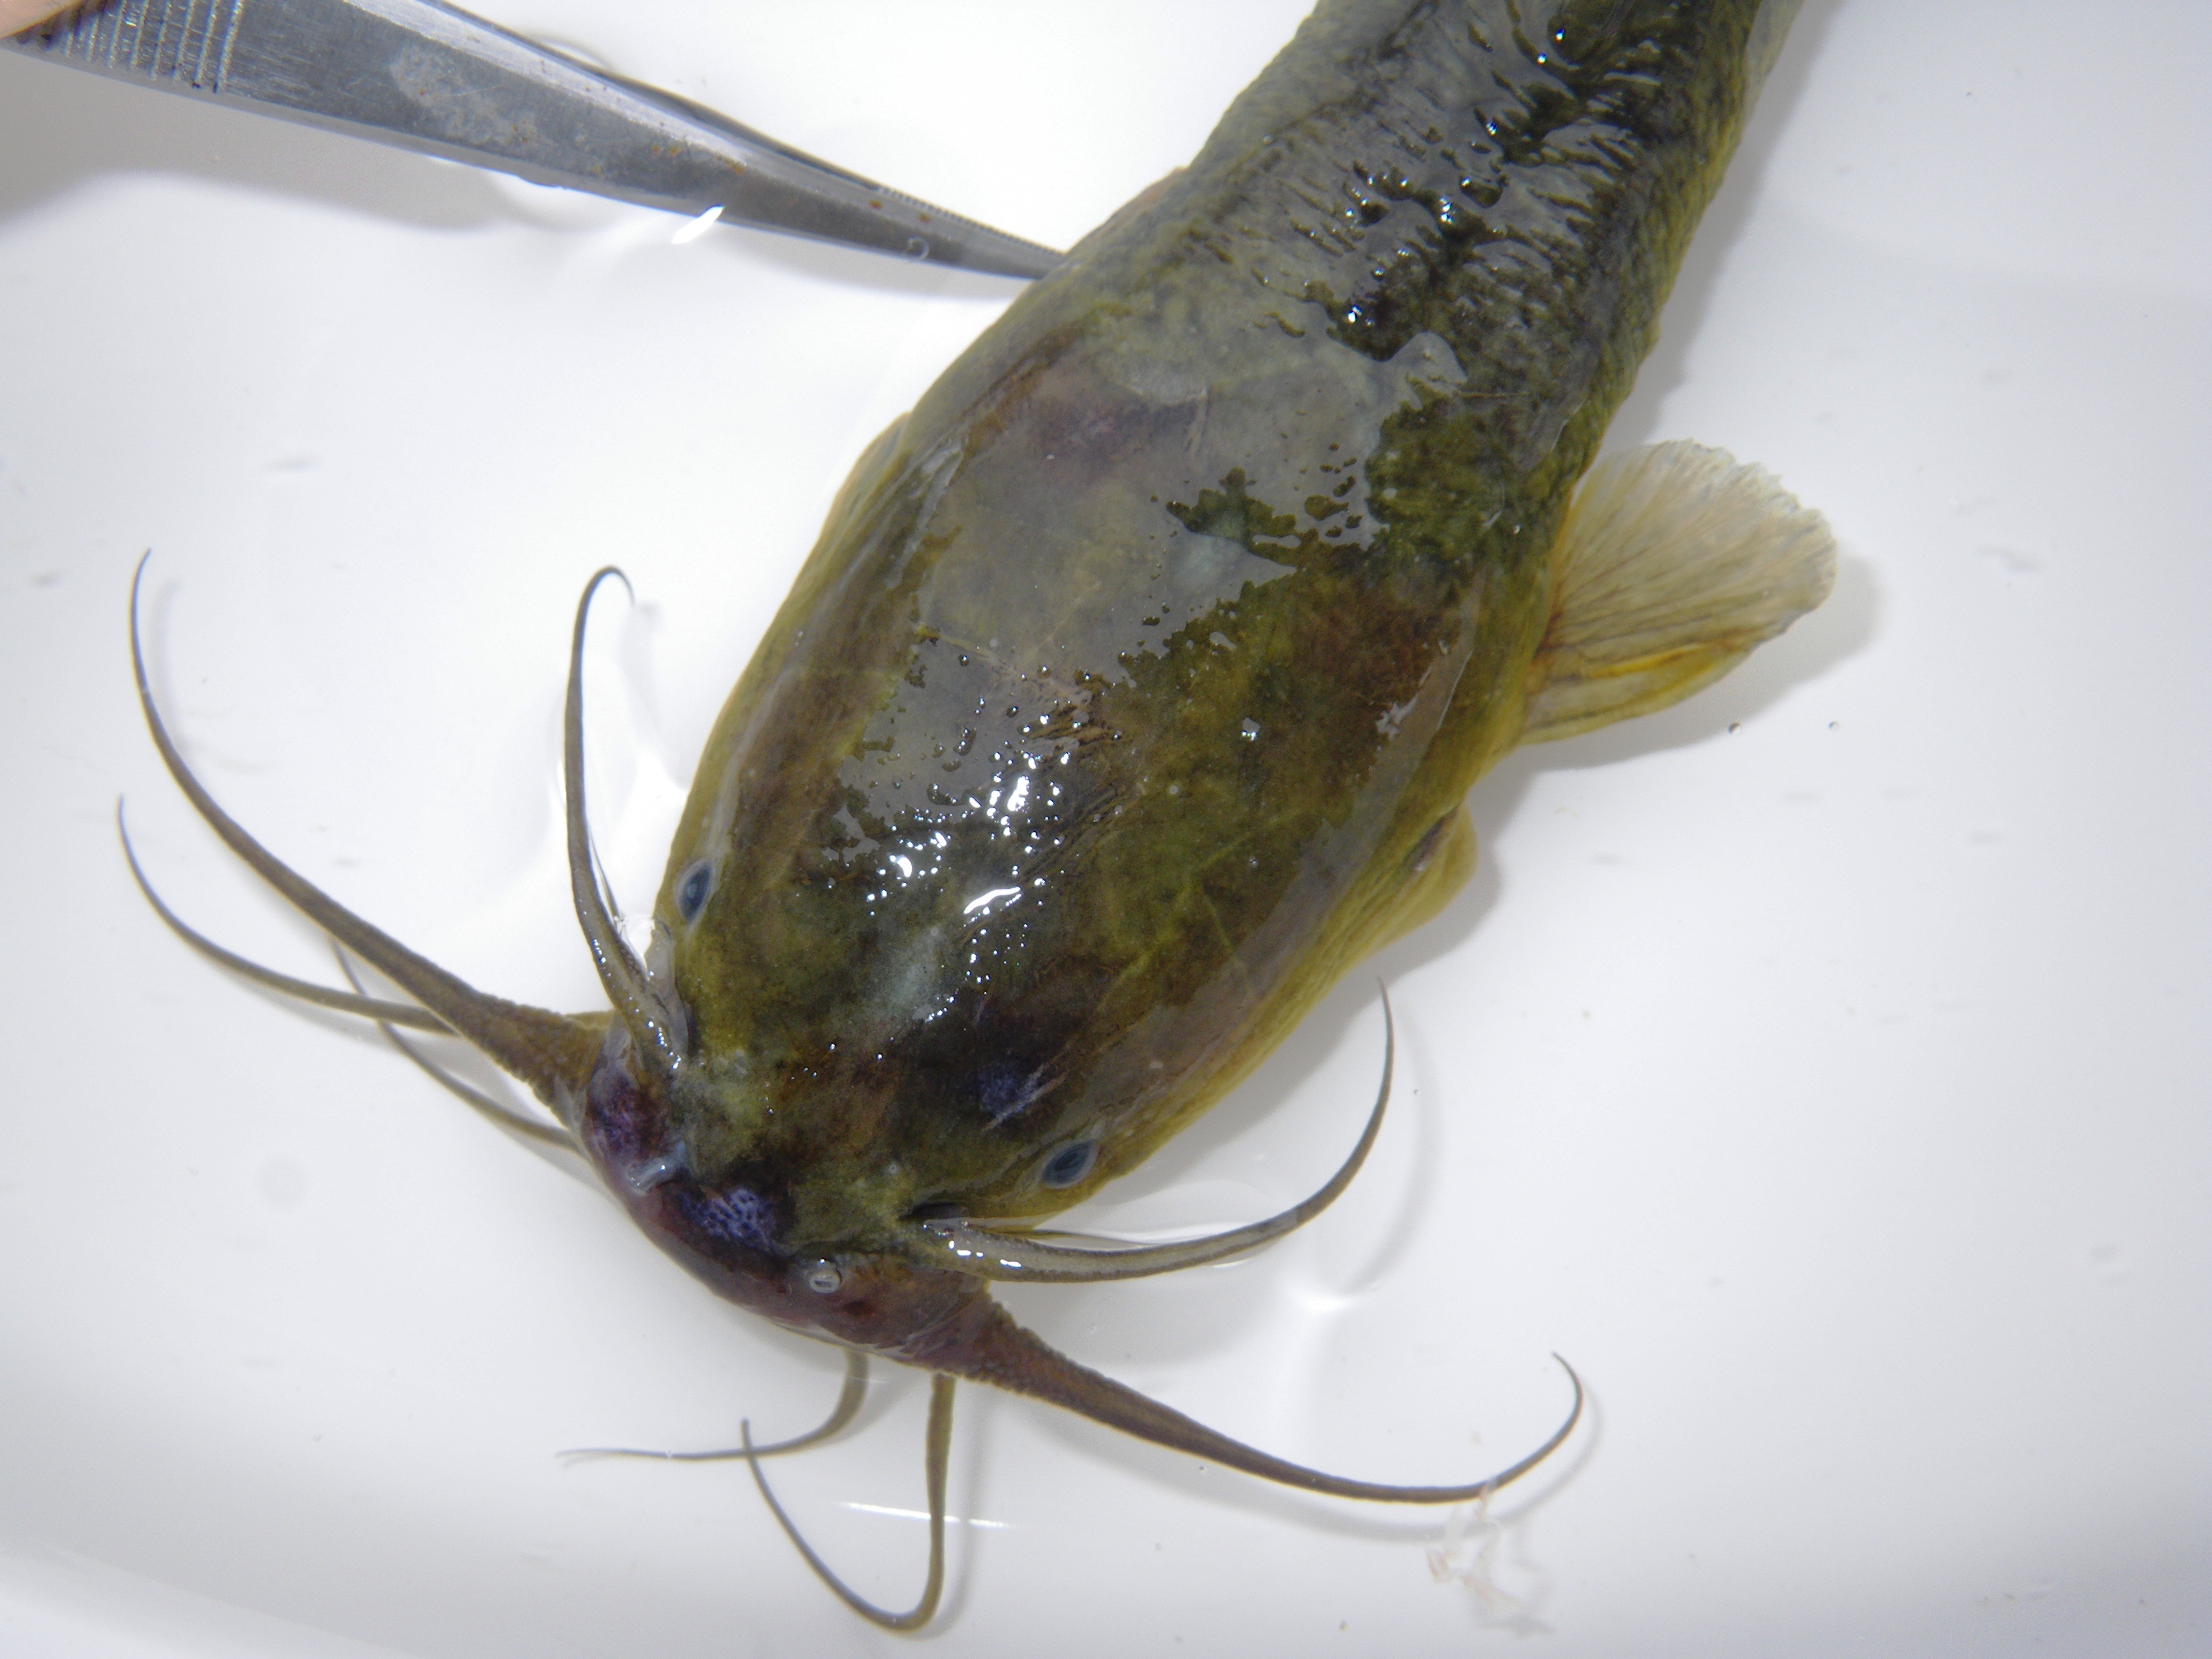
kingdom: Animalia
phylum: Chordata
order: Siluriformes
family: Clariidae
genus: Clarias
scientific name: Clarias theodorae
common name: Snake catfish
